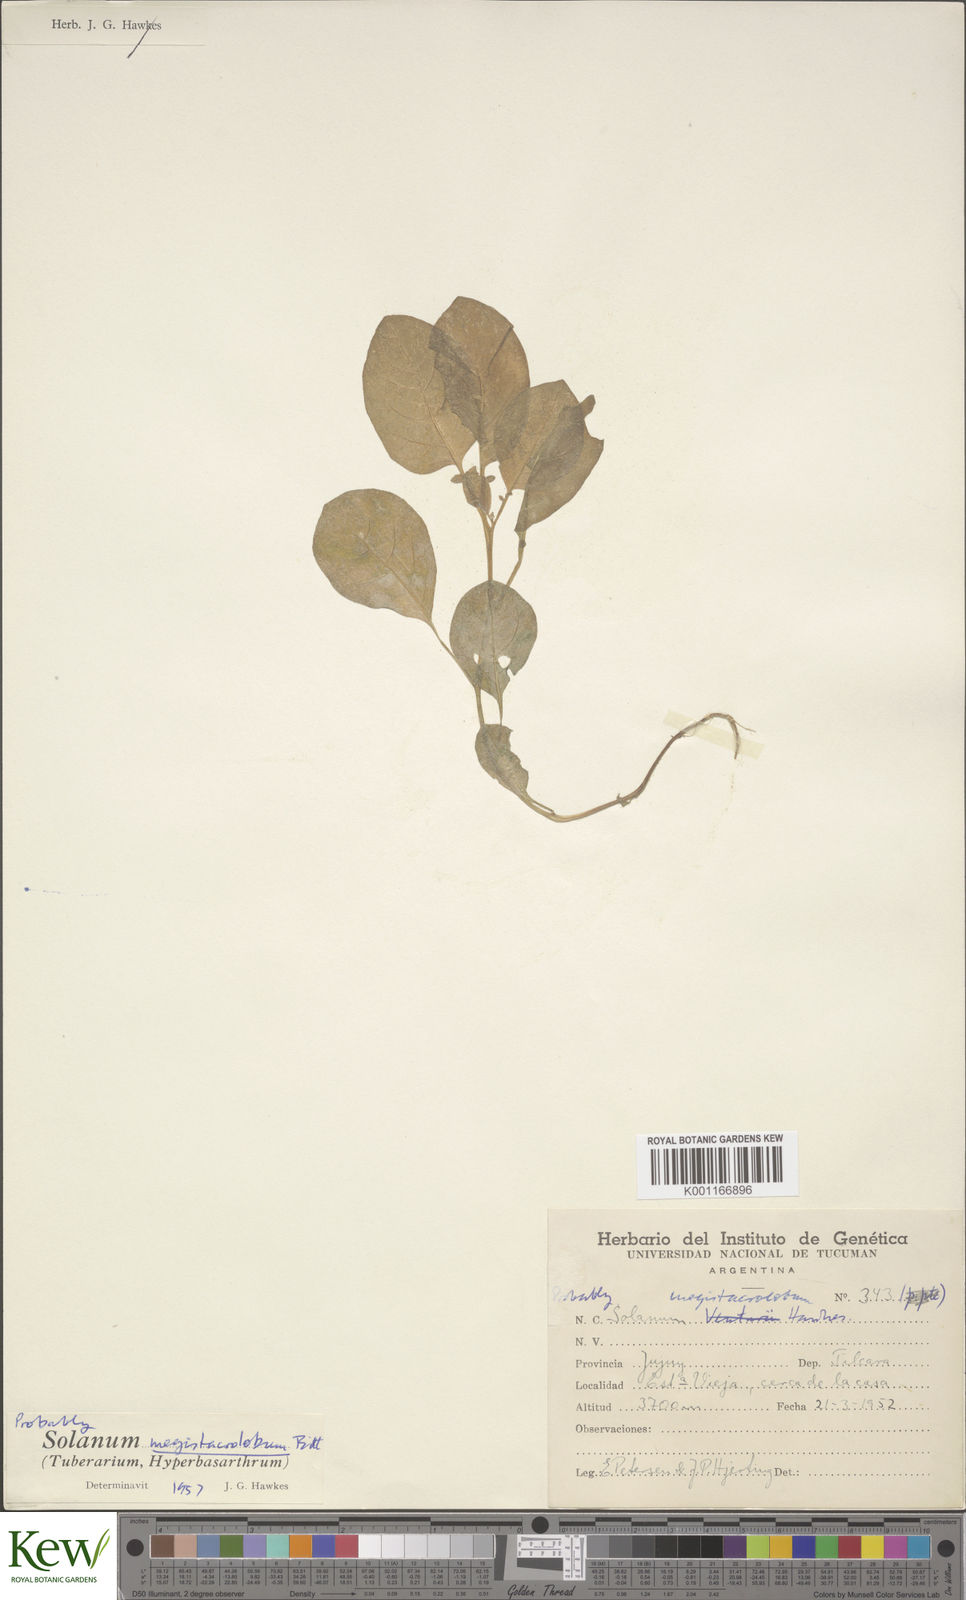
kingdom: Plantae
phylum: Tracheophyta
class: Magnoliopsida
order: Solanales
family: Solanaceae
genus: Solanum
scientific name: Solanum boliviense
